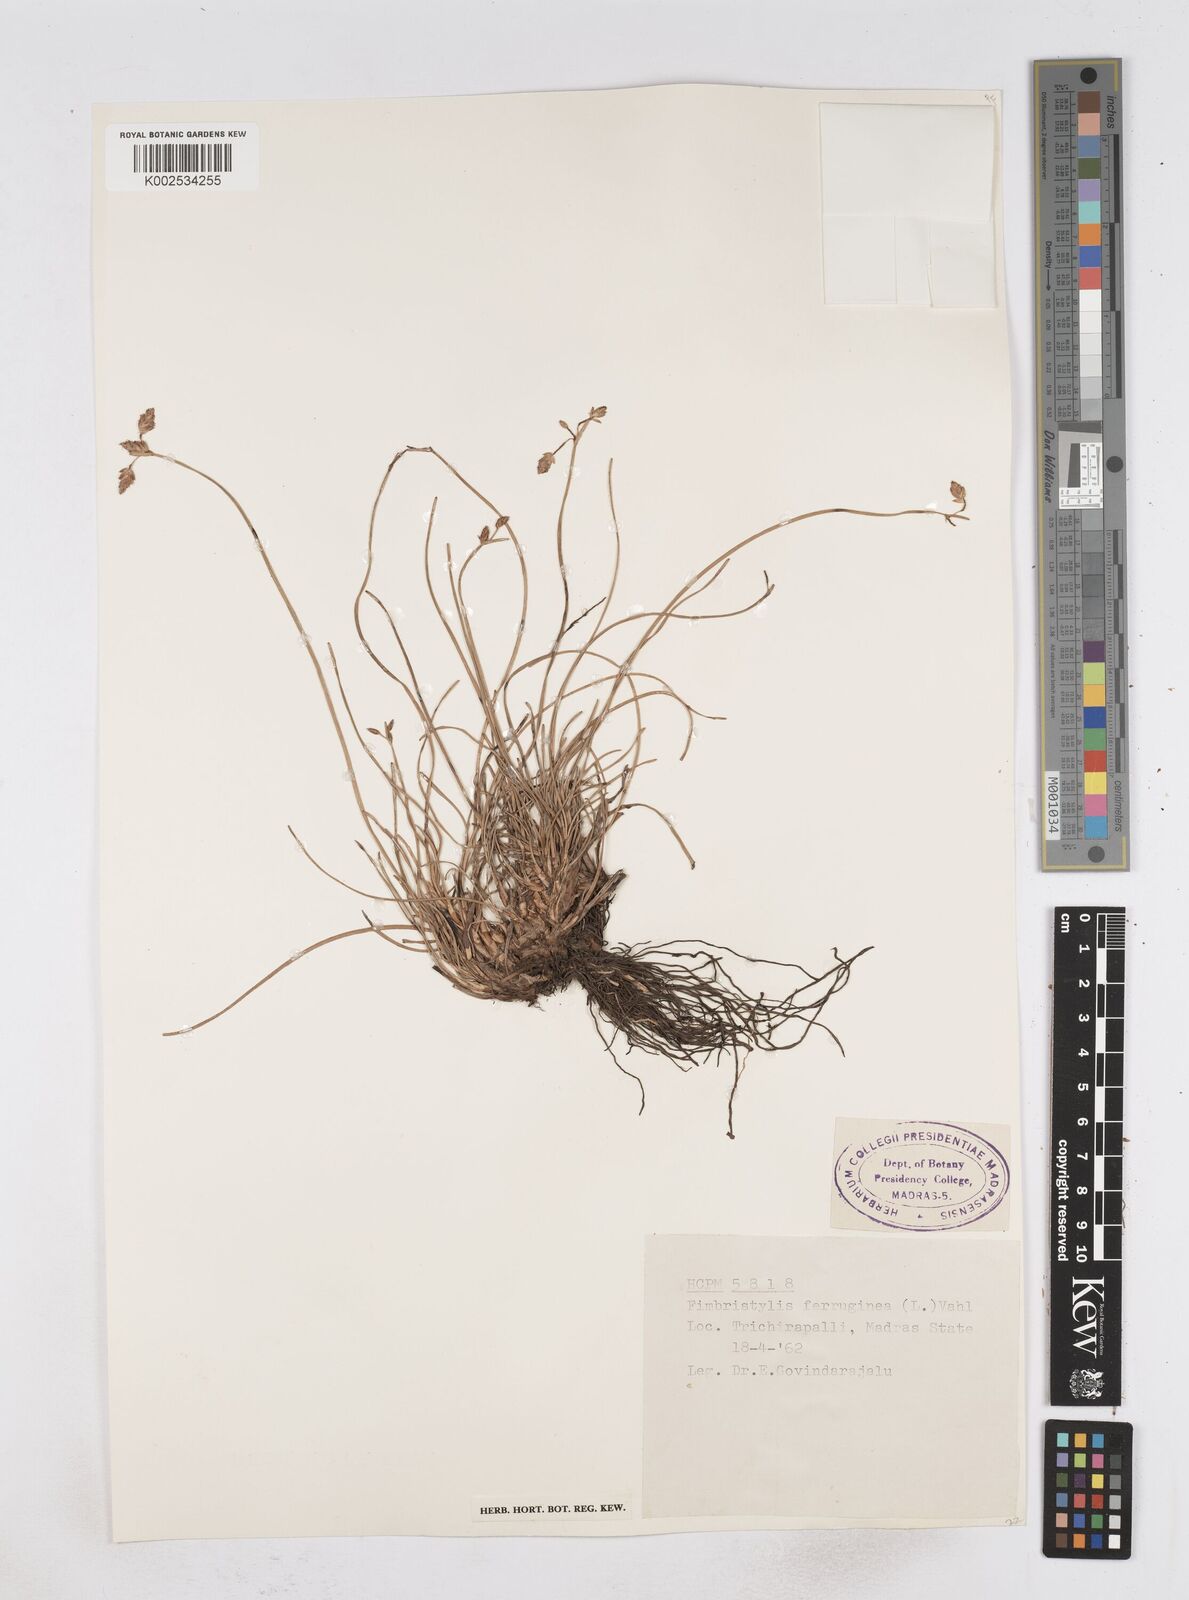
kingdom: Plantae
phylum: Tracheophyta
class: Liliopsida
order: Poales
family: Cyperaceae
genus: Fimbristylis
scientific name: Fimbristylis ferruginea
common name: West indian fimbry
